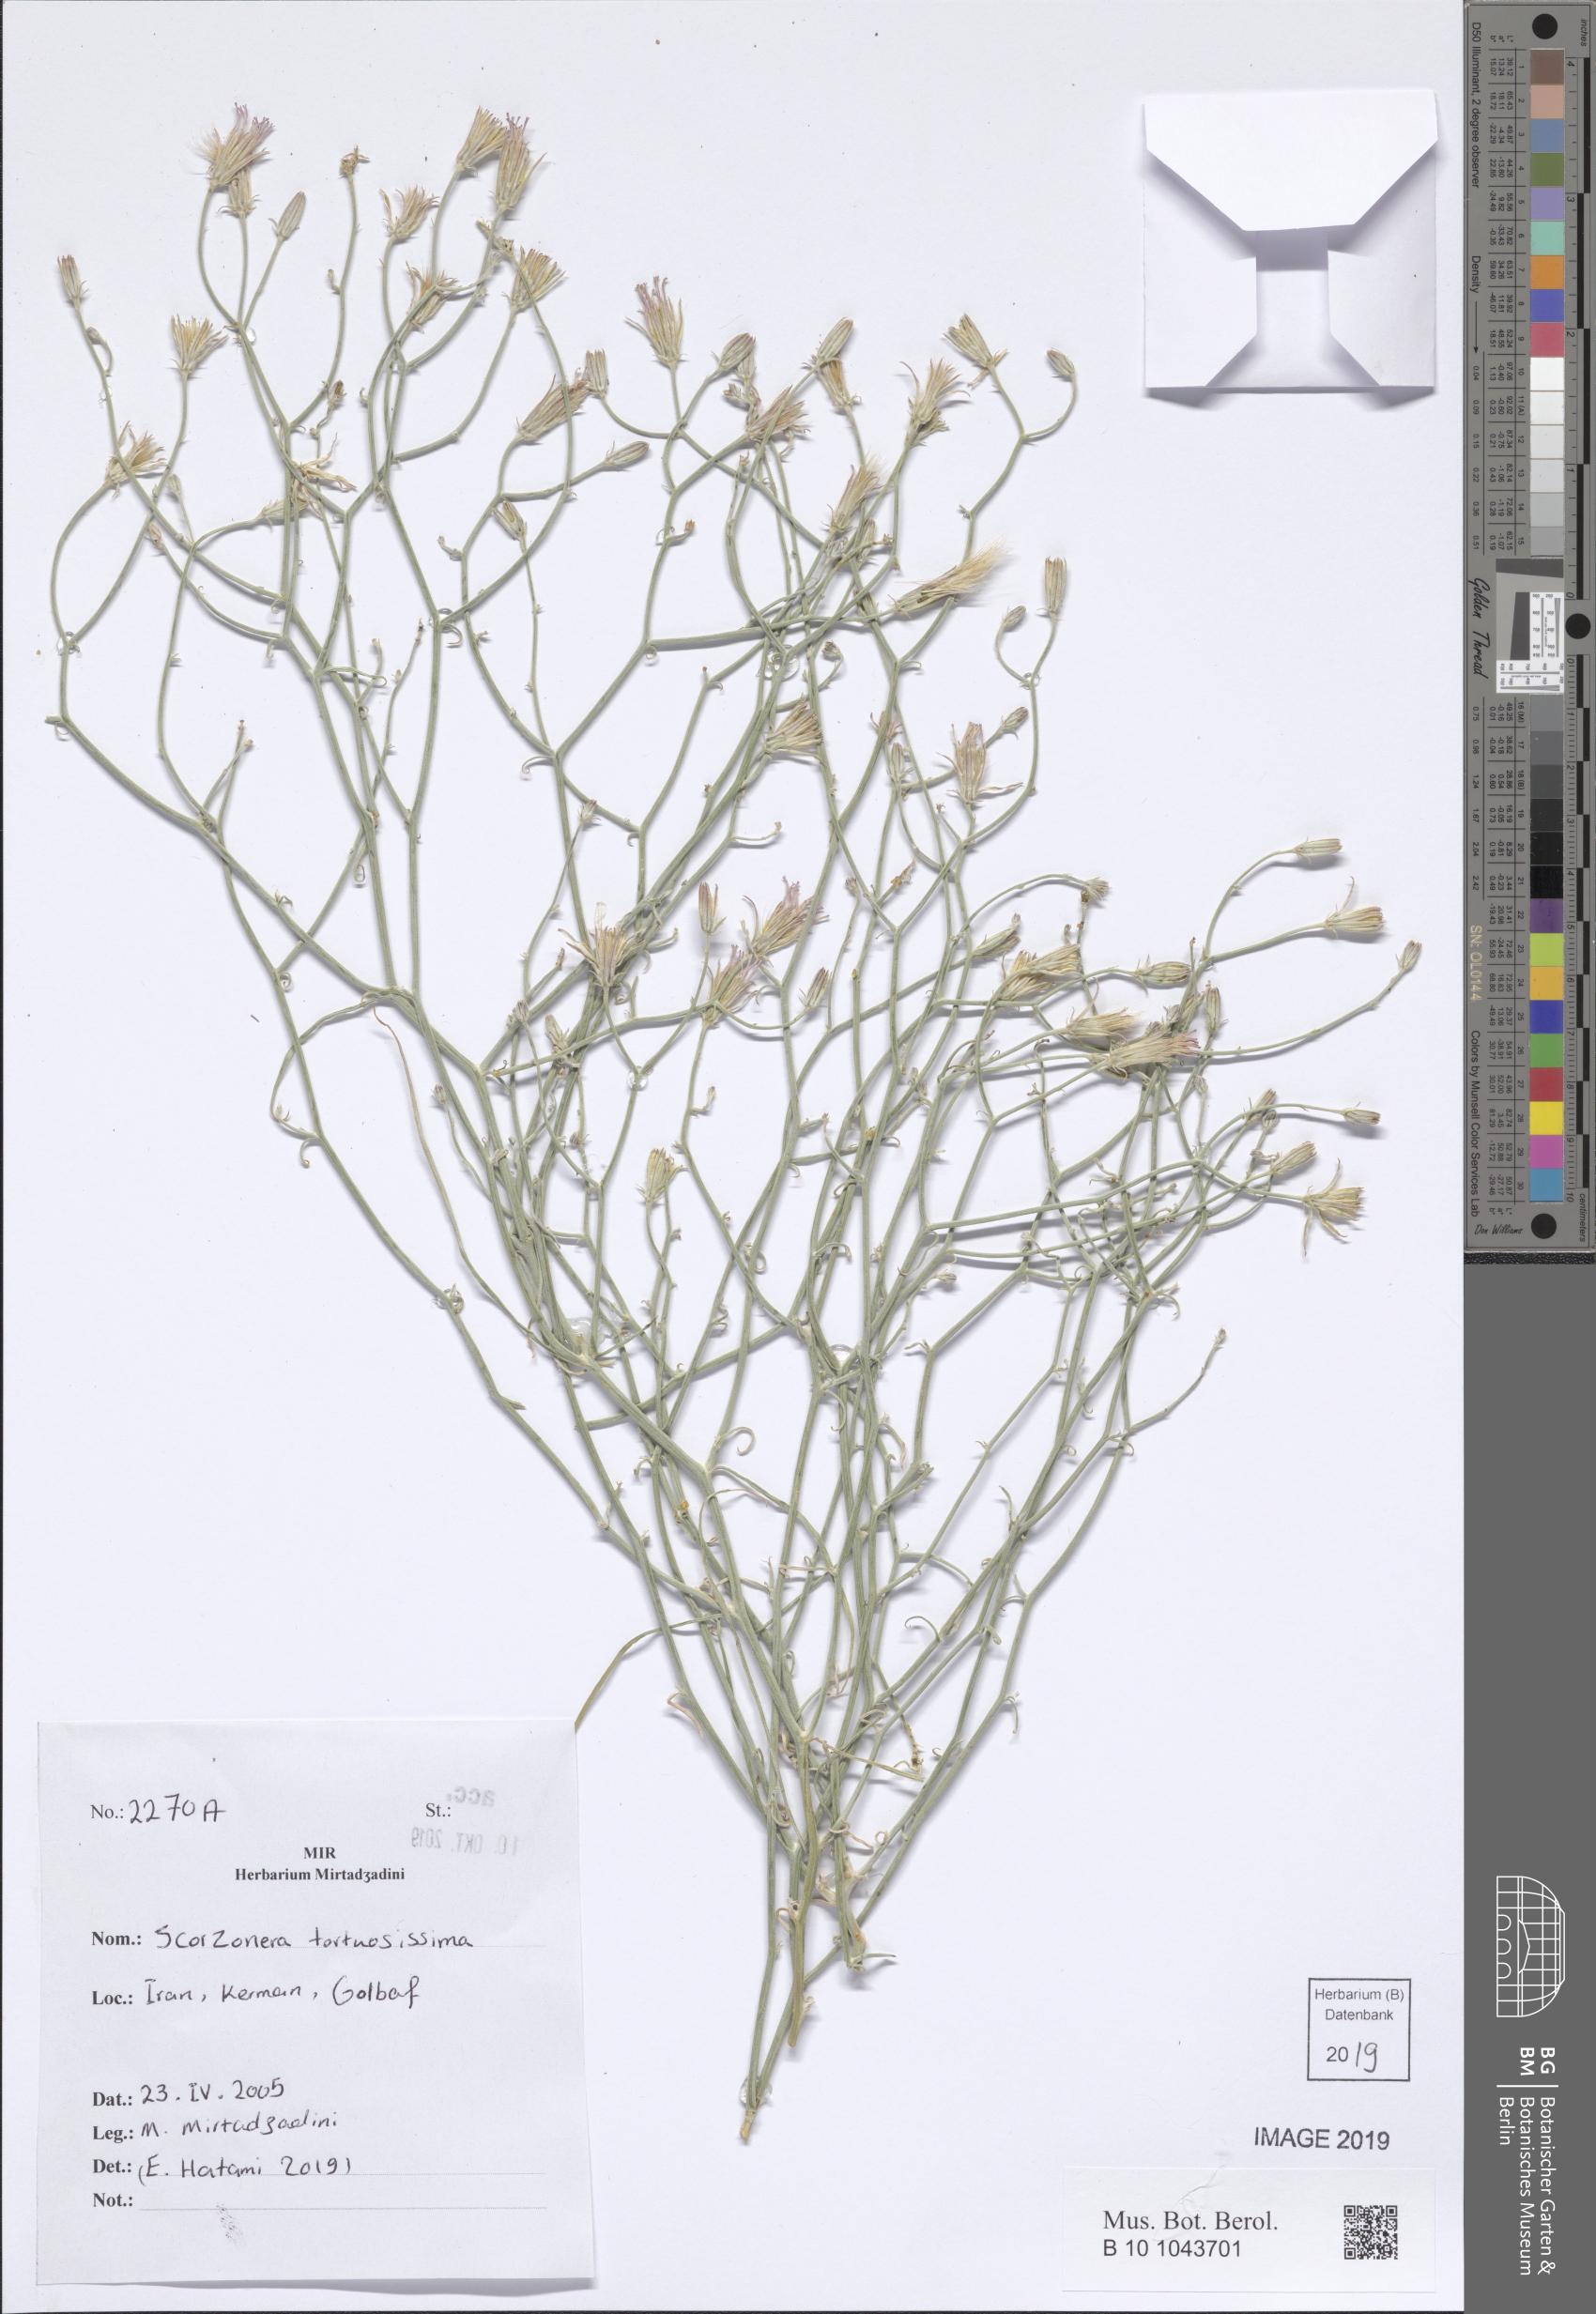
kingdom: Plantae
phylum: Tracheophyta
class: Magnoliopsida
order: Asterales
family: Asteraceae
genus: Ramaliella
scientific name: Ramaliella tortuosissima
